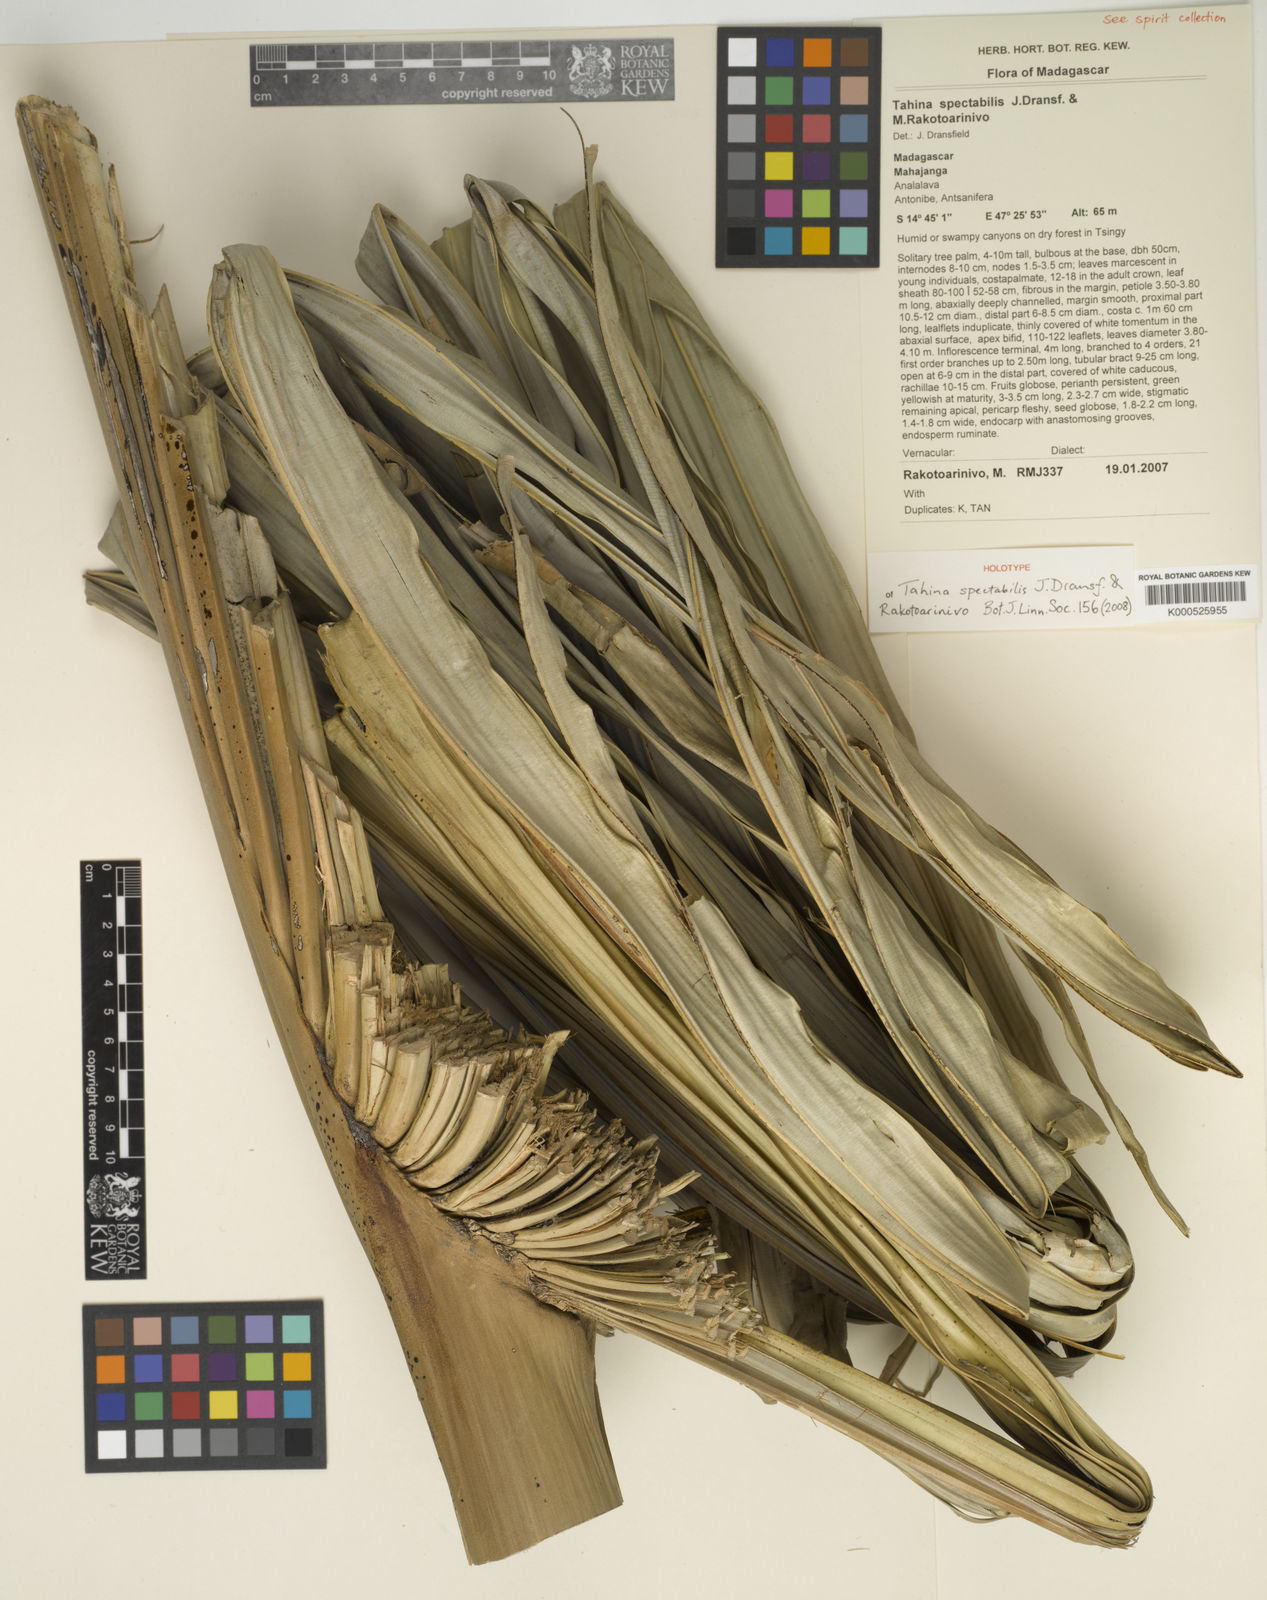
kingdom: Plantae
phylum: Tracheophyta
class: Liliopsida
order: Arecales
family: Arecaceae
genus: Tahina
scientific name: Tahina spectabilis
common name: Suicide palm
